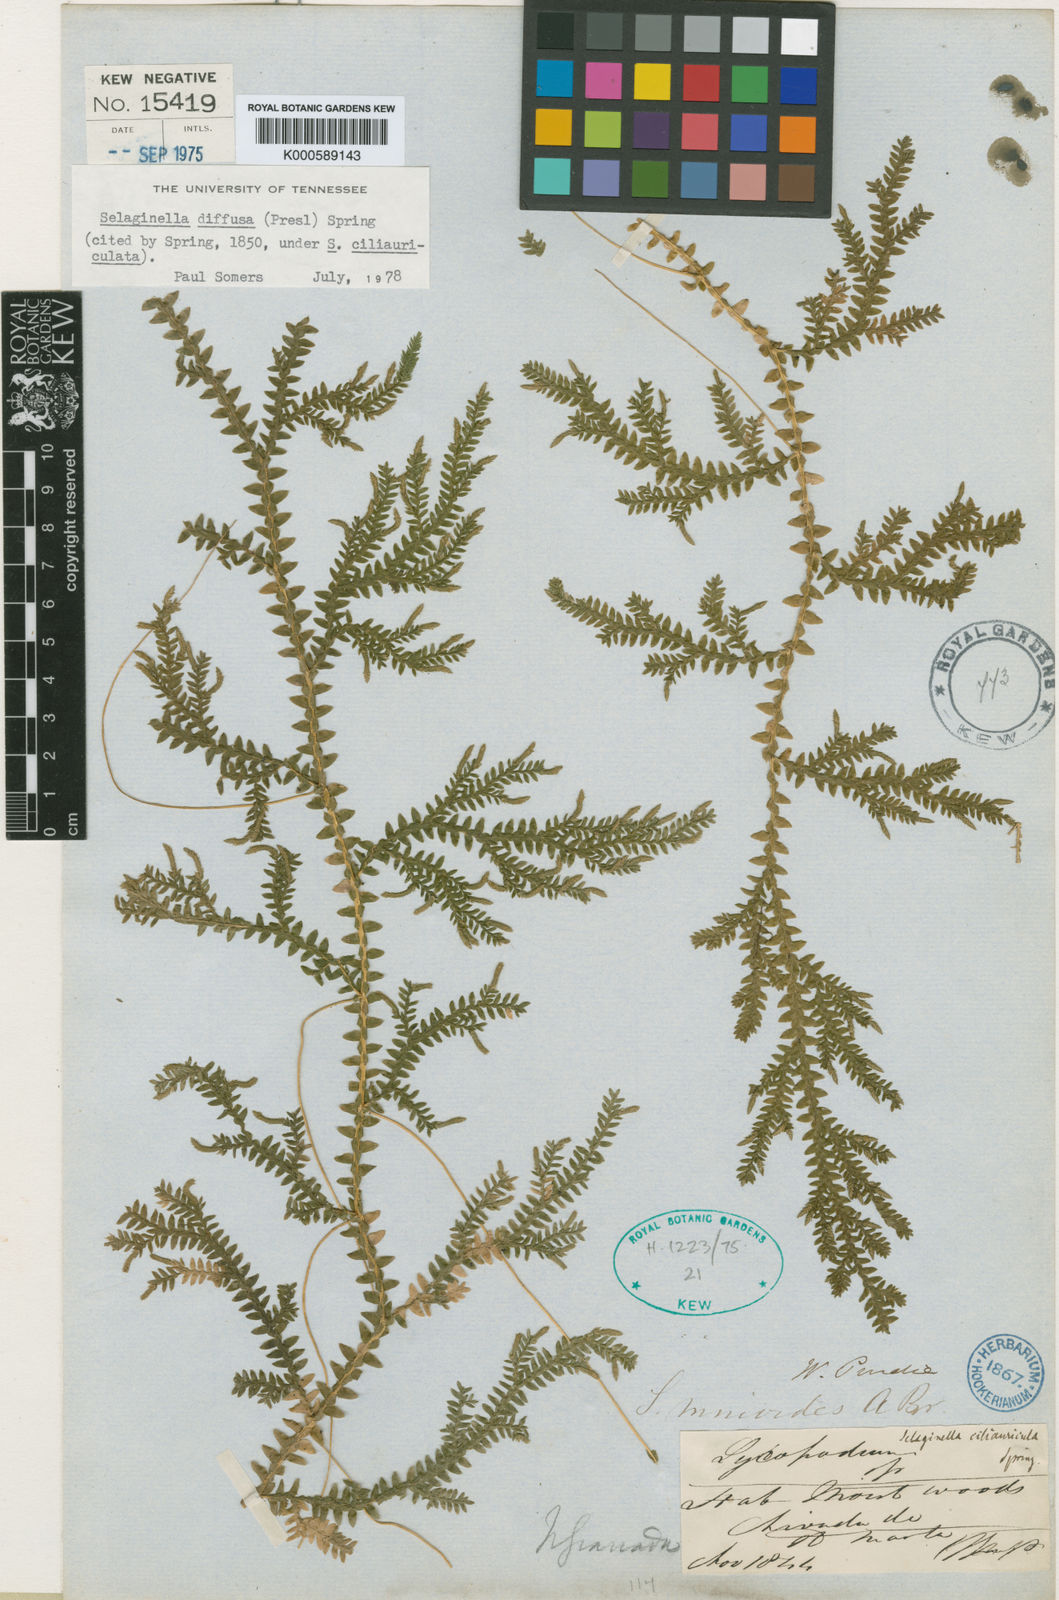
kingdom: Plantae
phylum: Tracheophyta
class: Lycopodiopsida
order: Selaginellales
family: Selaginellaceae
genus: Selaginella
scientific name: Selaginella diffusa
